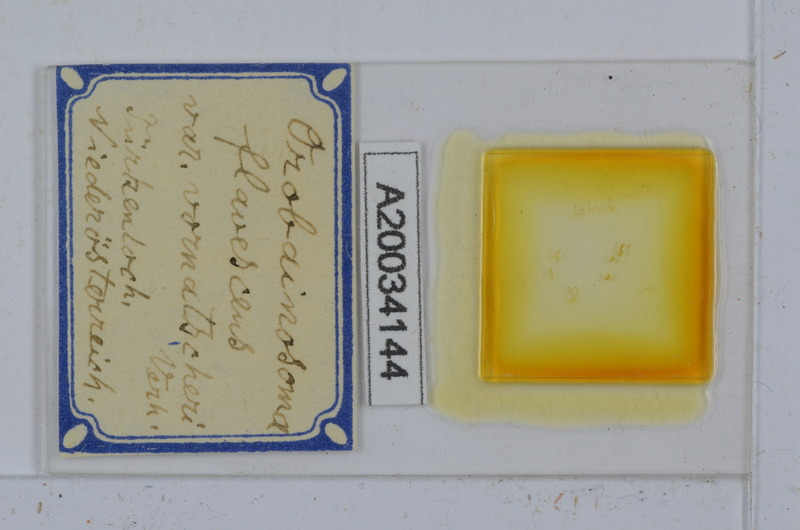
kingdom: Animalia
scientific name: Animalia
